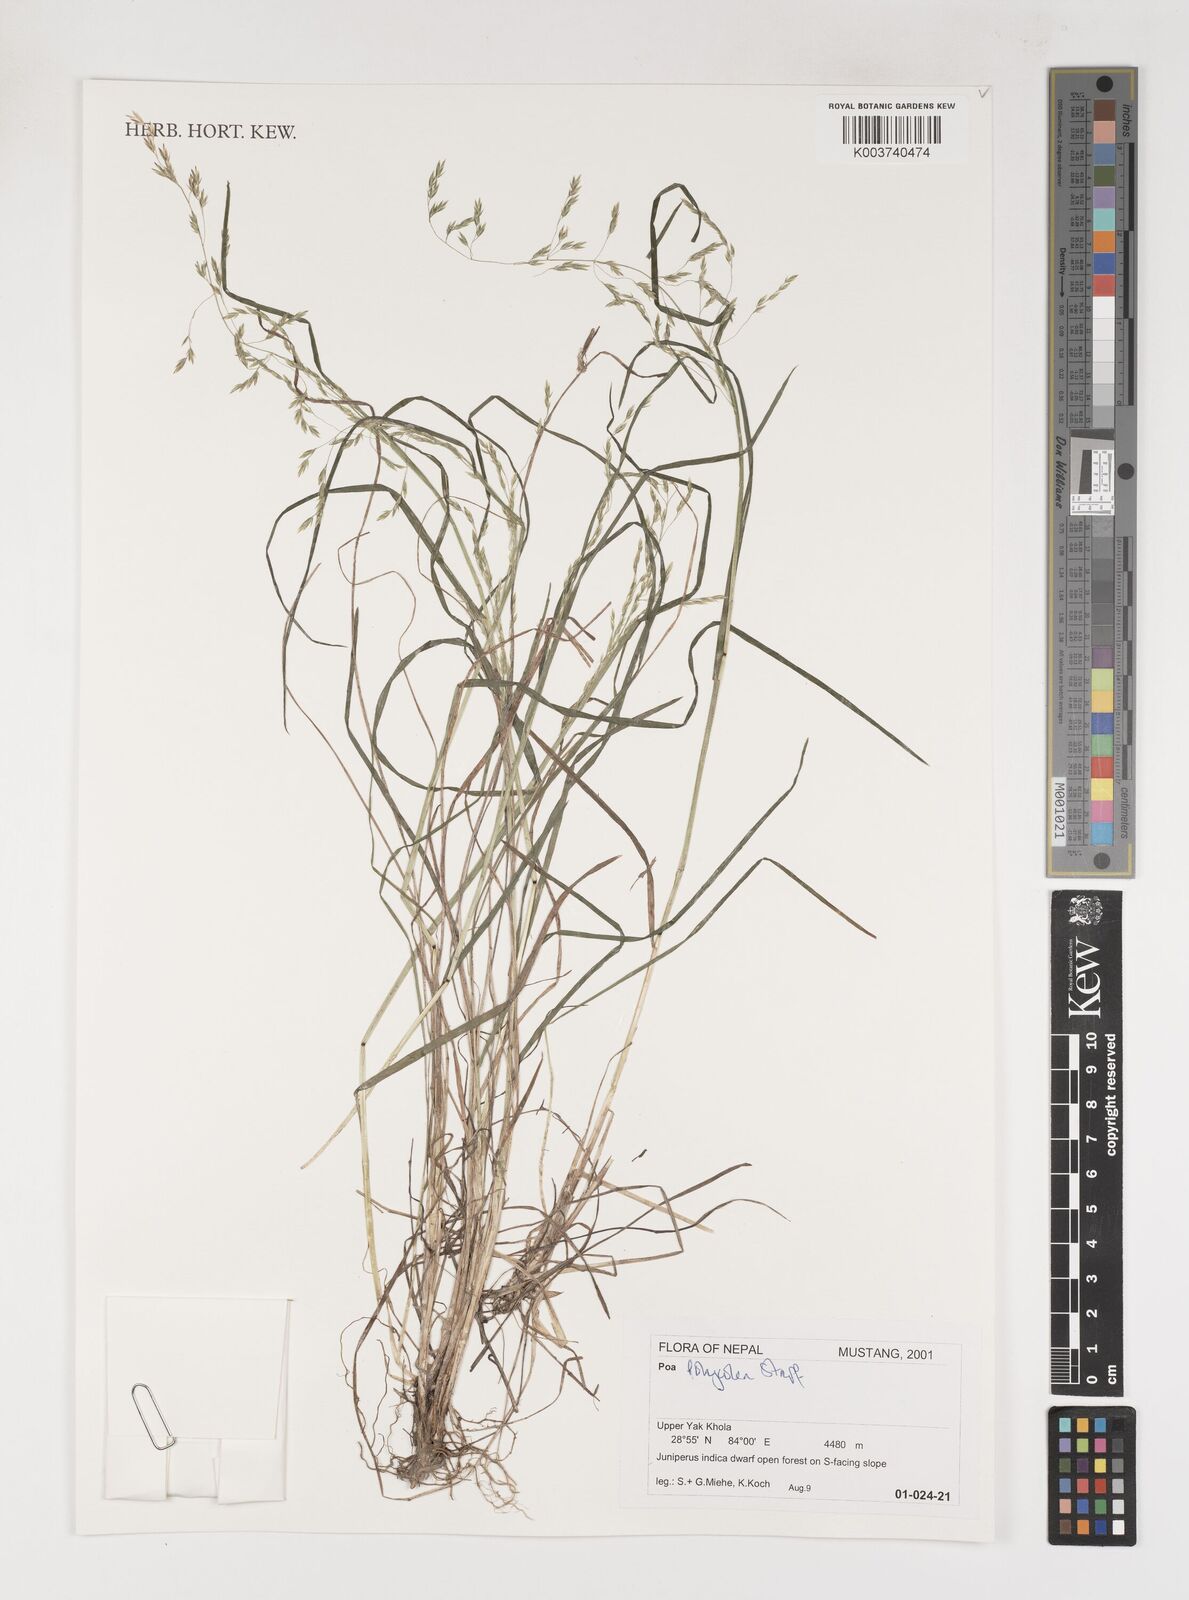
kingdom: Plantae
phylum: Tracheophyta
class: Liliopsida
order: Poales
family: Poaceae
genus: Poa
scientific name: Poa polycolea
